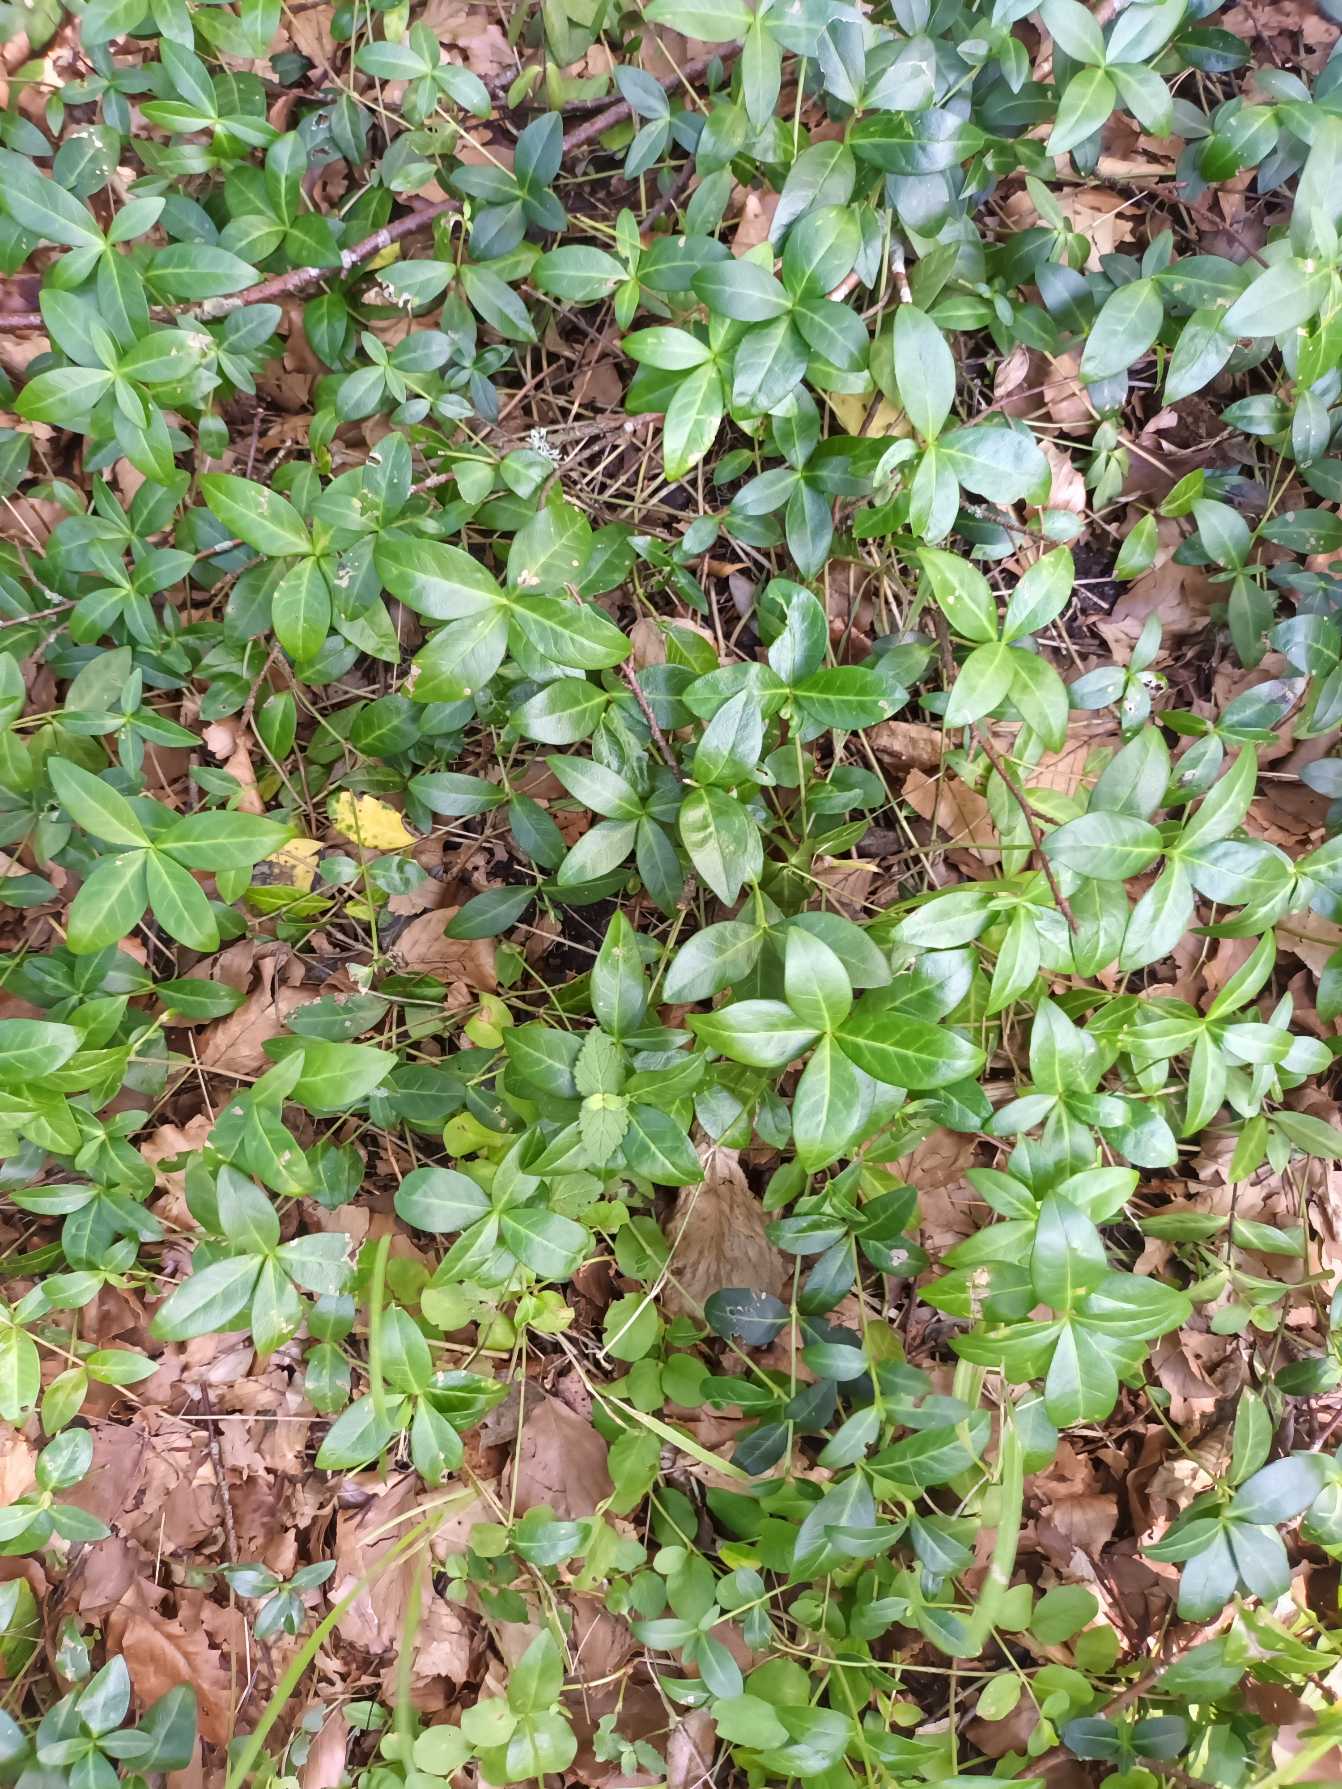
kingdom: Plantae
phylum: Tracheophyta
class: Magnoliopsida
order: Gentianales
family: Apocynaceae
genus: Vinca
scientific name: Vinca minor
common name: Liden singrøn
